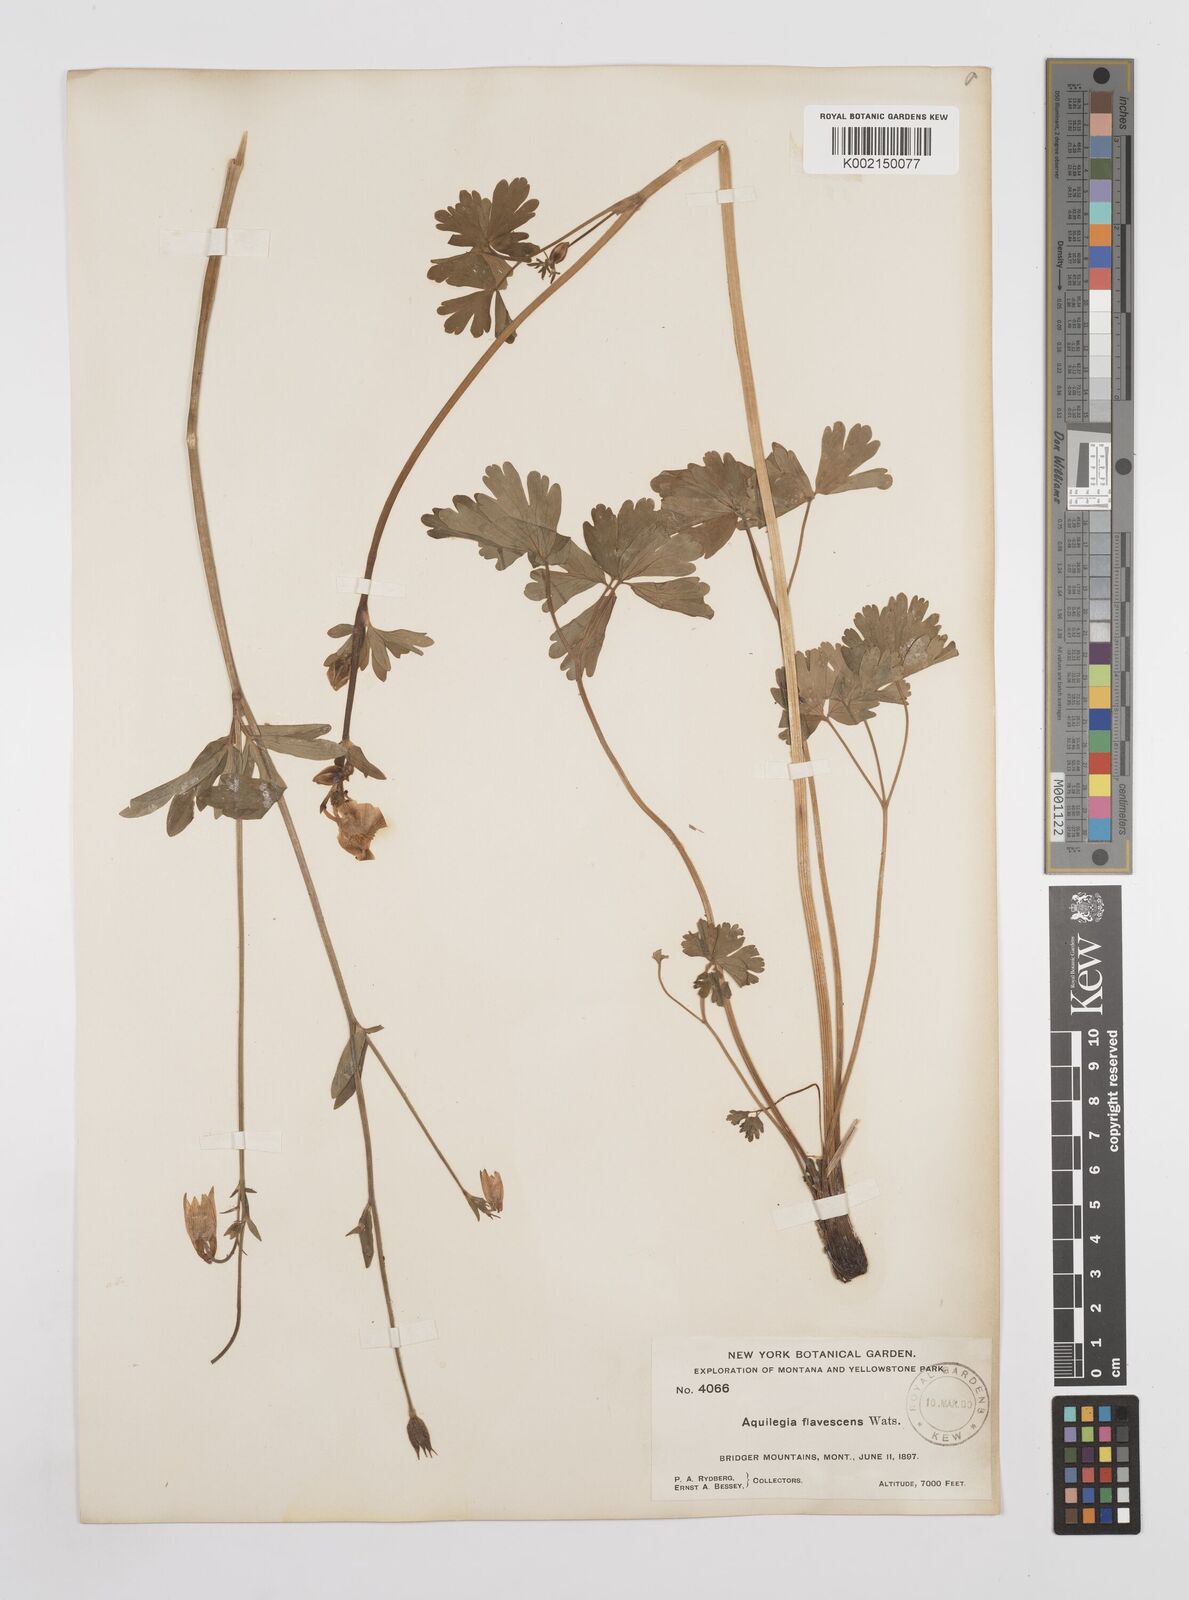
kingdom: Plantae
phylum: Tracheophyta
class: Magnoliopsida
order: Ranunculales
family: Ranunculaceae
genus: Aquilegia
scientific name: Aquilegia flavescens
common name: Yellow columbine
